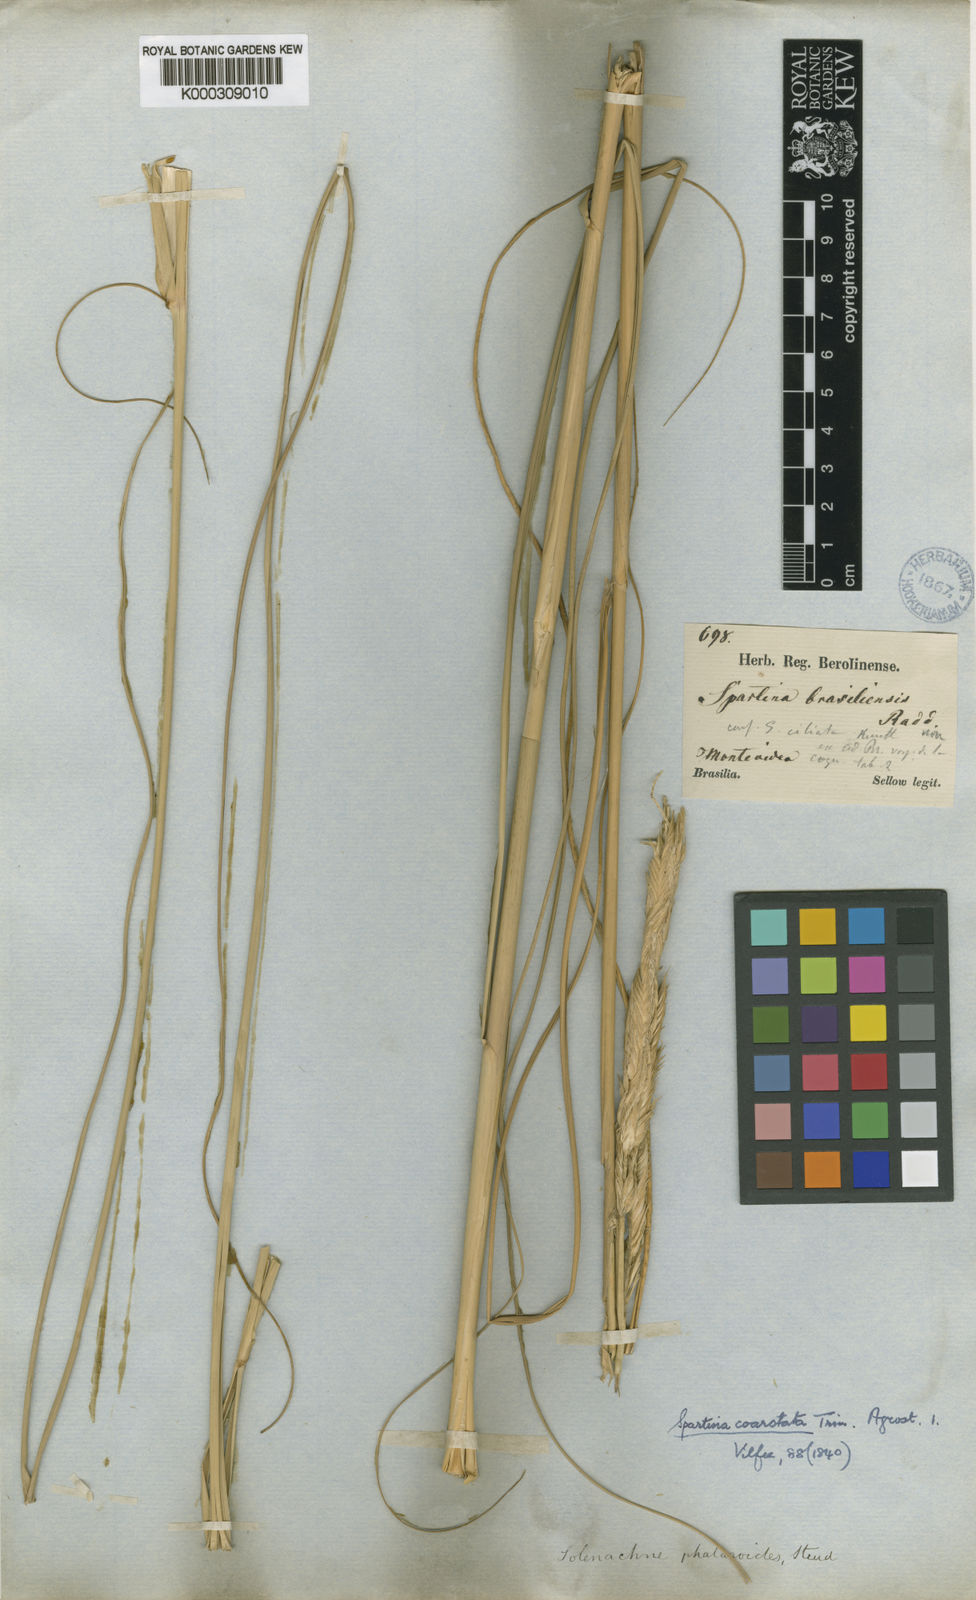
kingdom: Plantae
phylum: Tracheophyta
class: Liliopsida
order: Poales
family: Poaceae
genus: Sporobolus
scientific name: Sporobolus coarctatus
